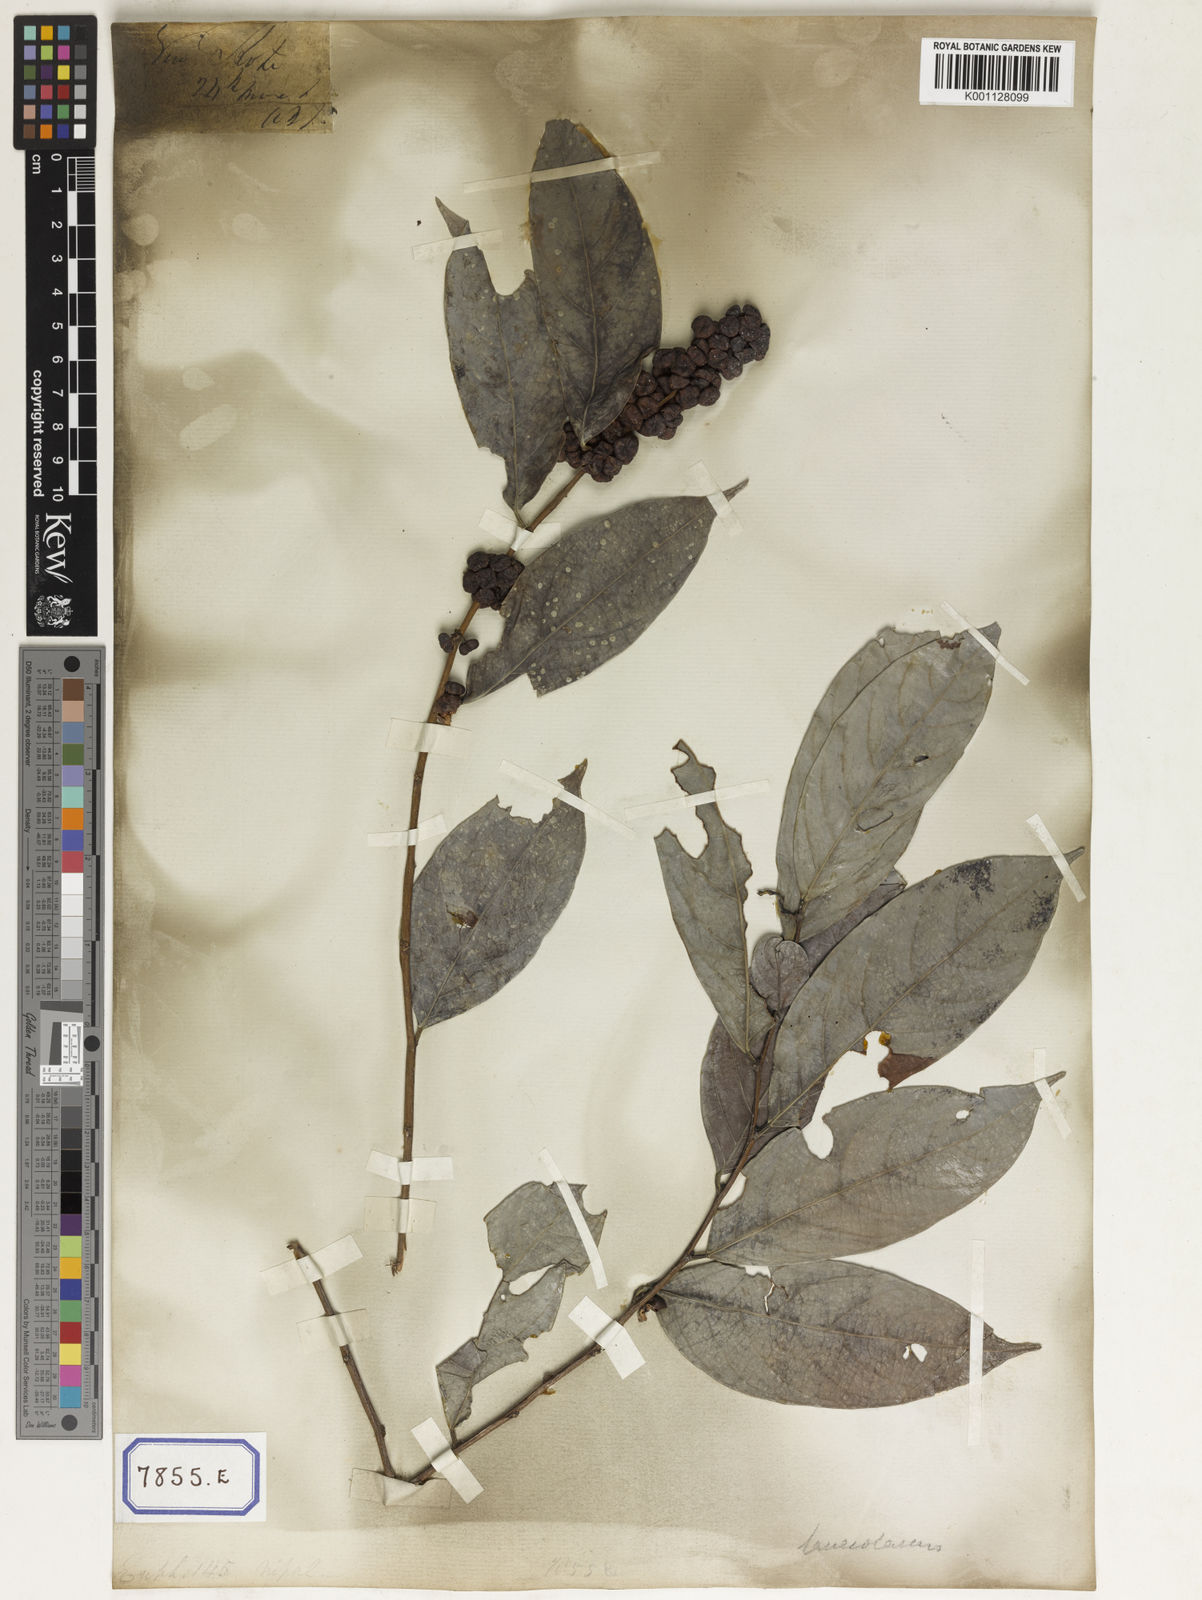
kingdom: Plantae
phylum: Tracheophyta
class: Magnoliopsida
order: Malpighiales
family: Euphorbiaceae
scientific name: Euphorbiaceae
